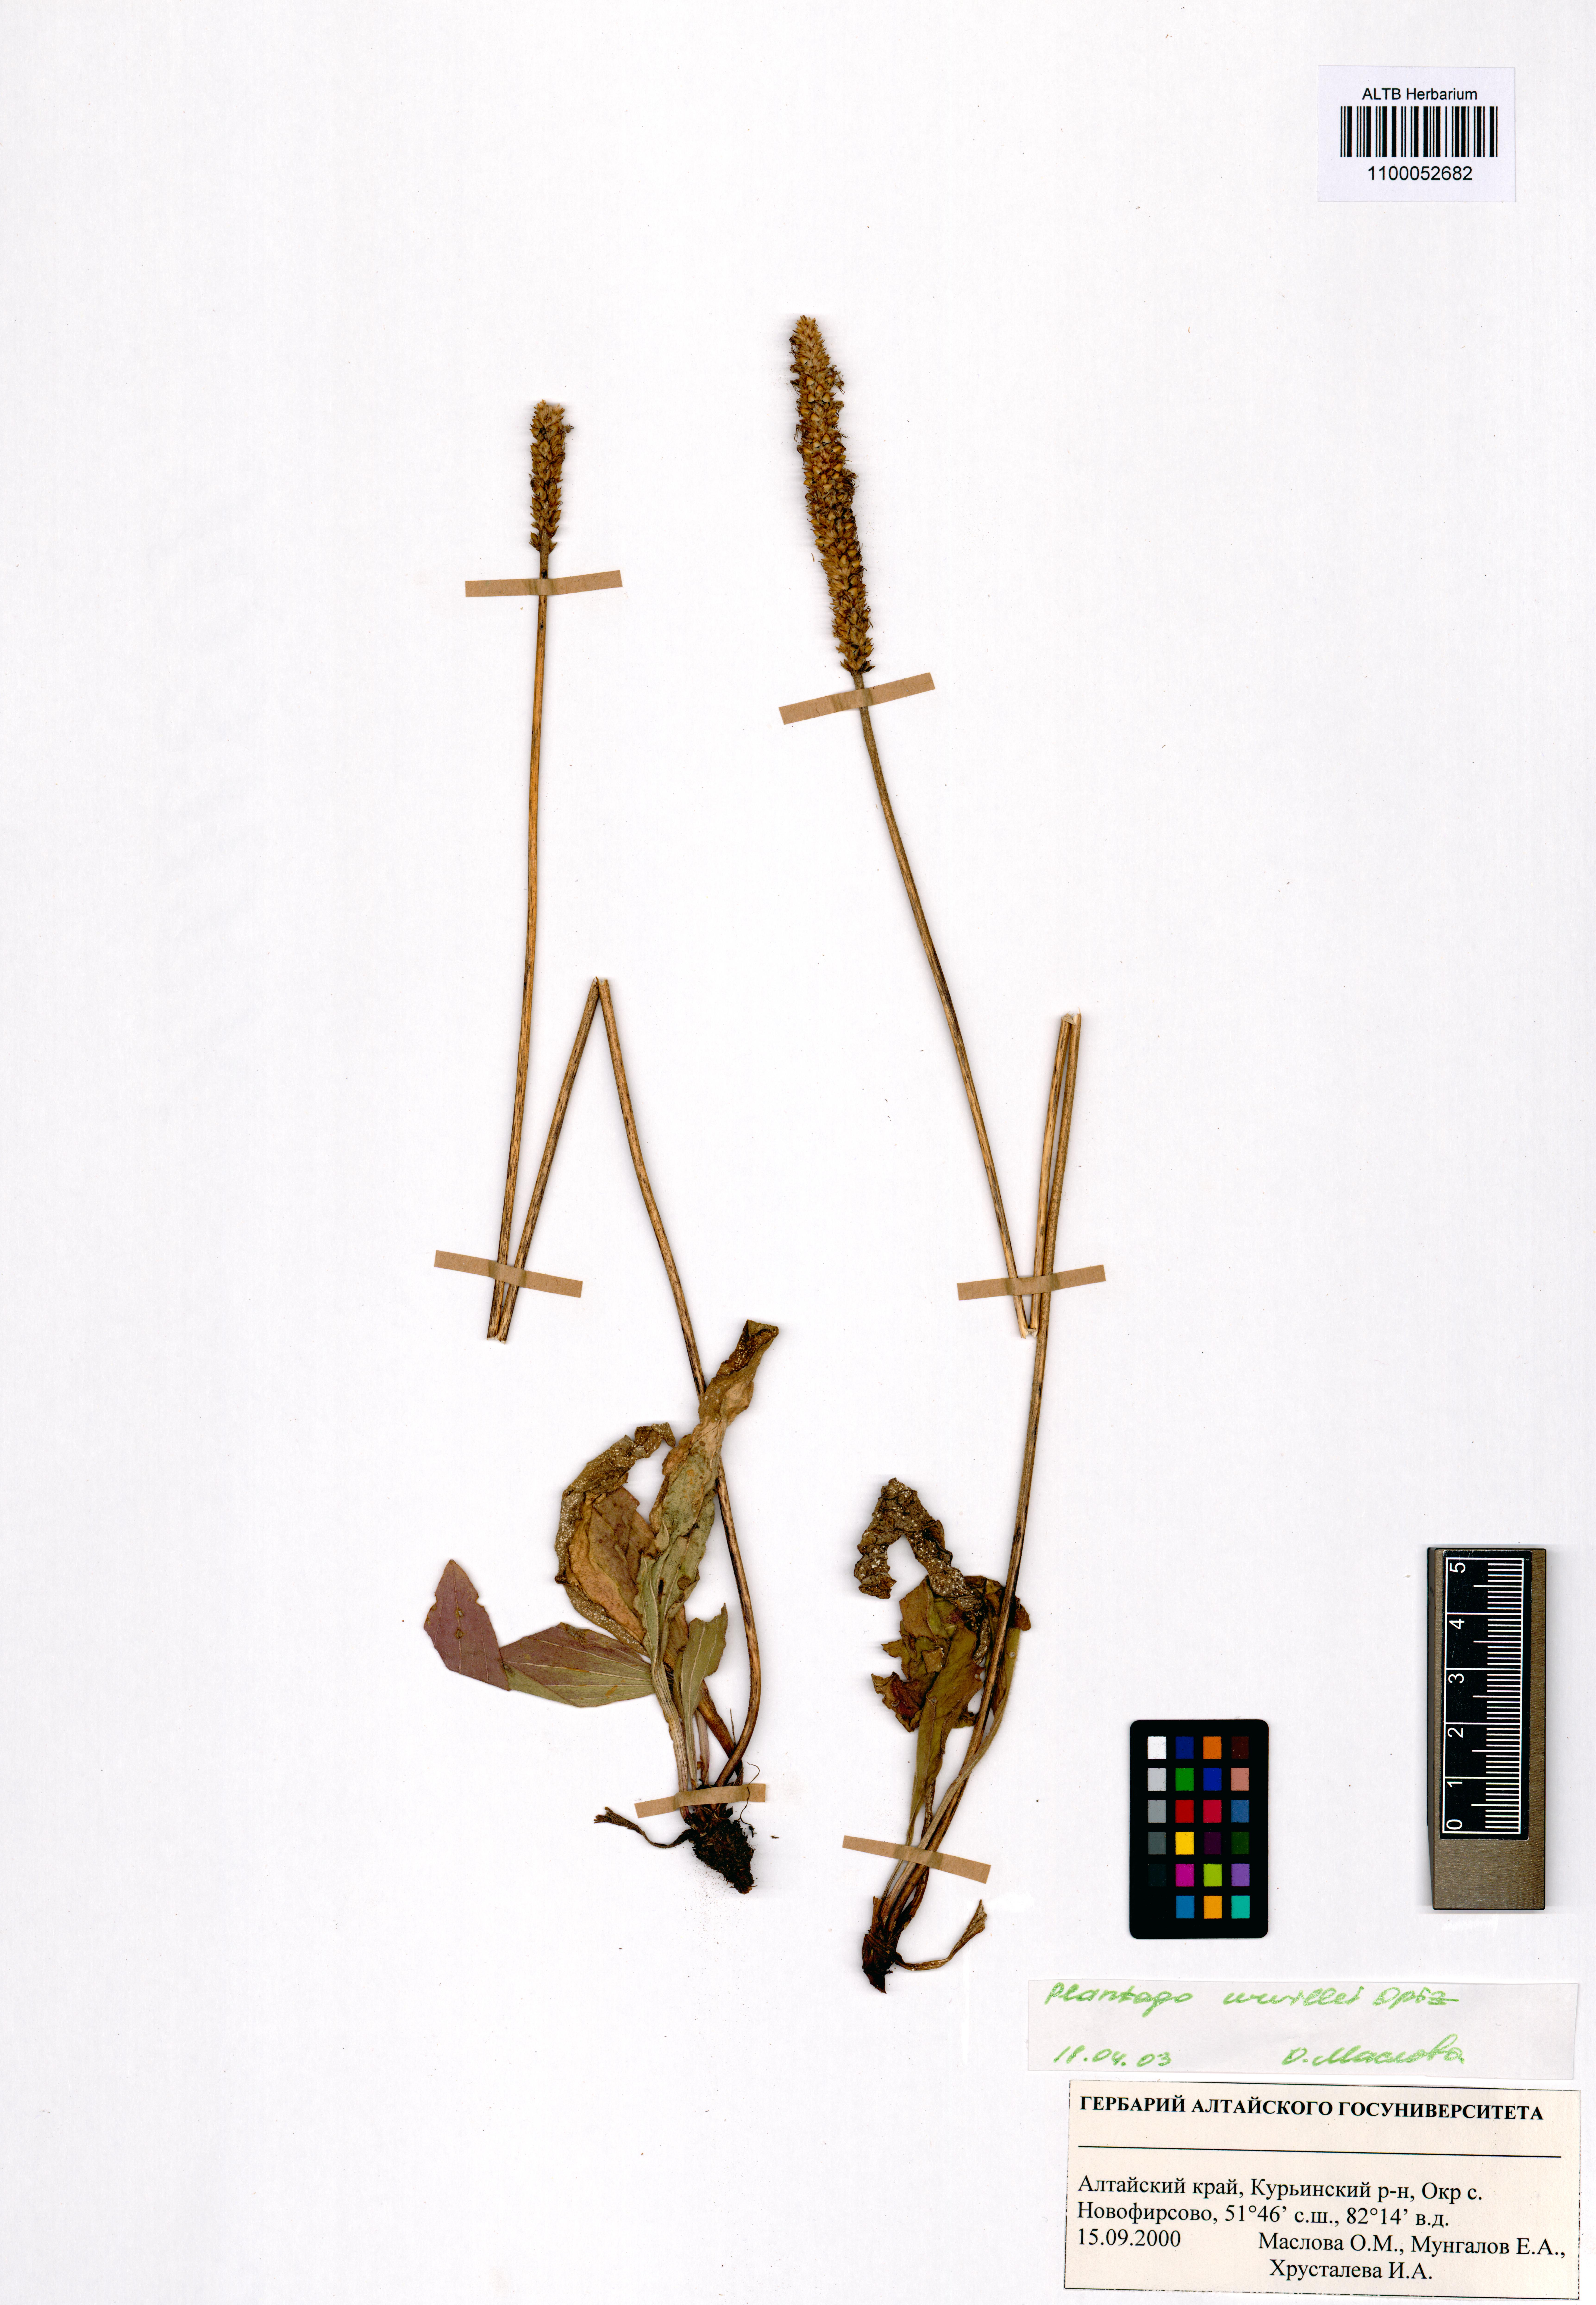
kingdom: Plantae
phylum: Tracheophyta
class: Magnoliopsida
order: Lamiales
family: Plantaginaceae
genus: Plantago
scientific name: Plantago urvillei
